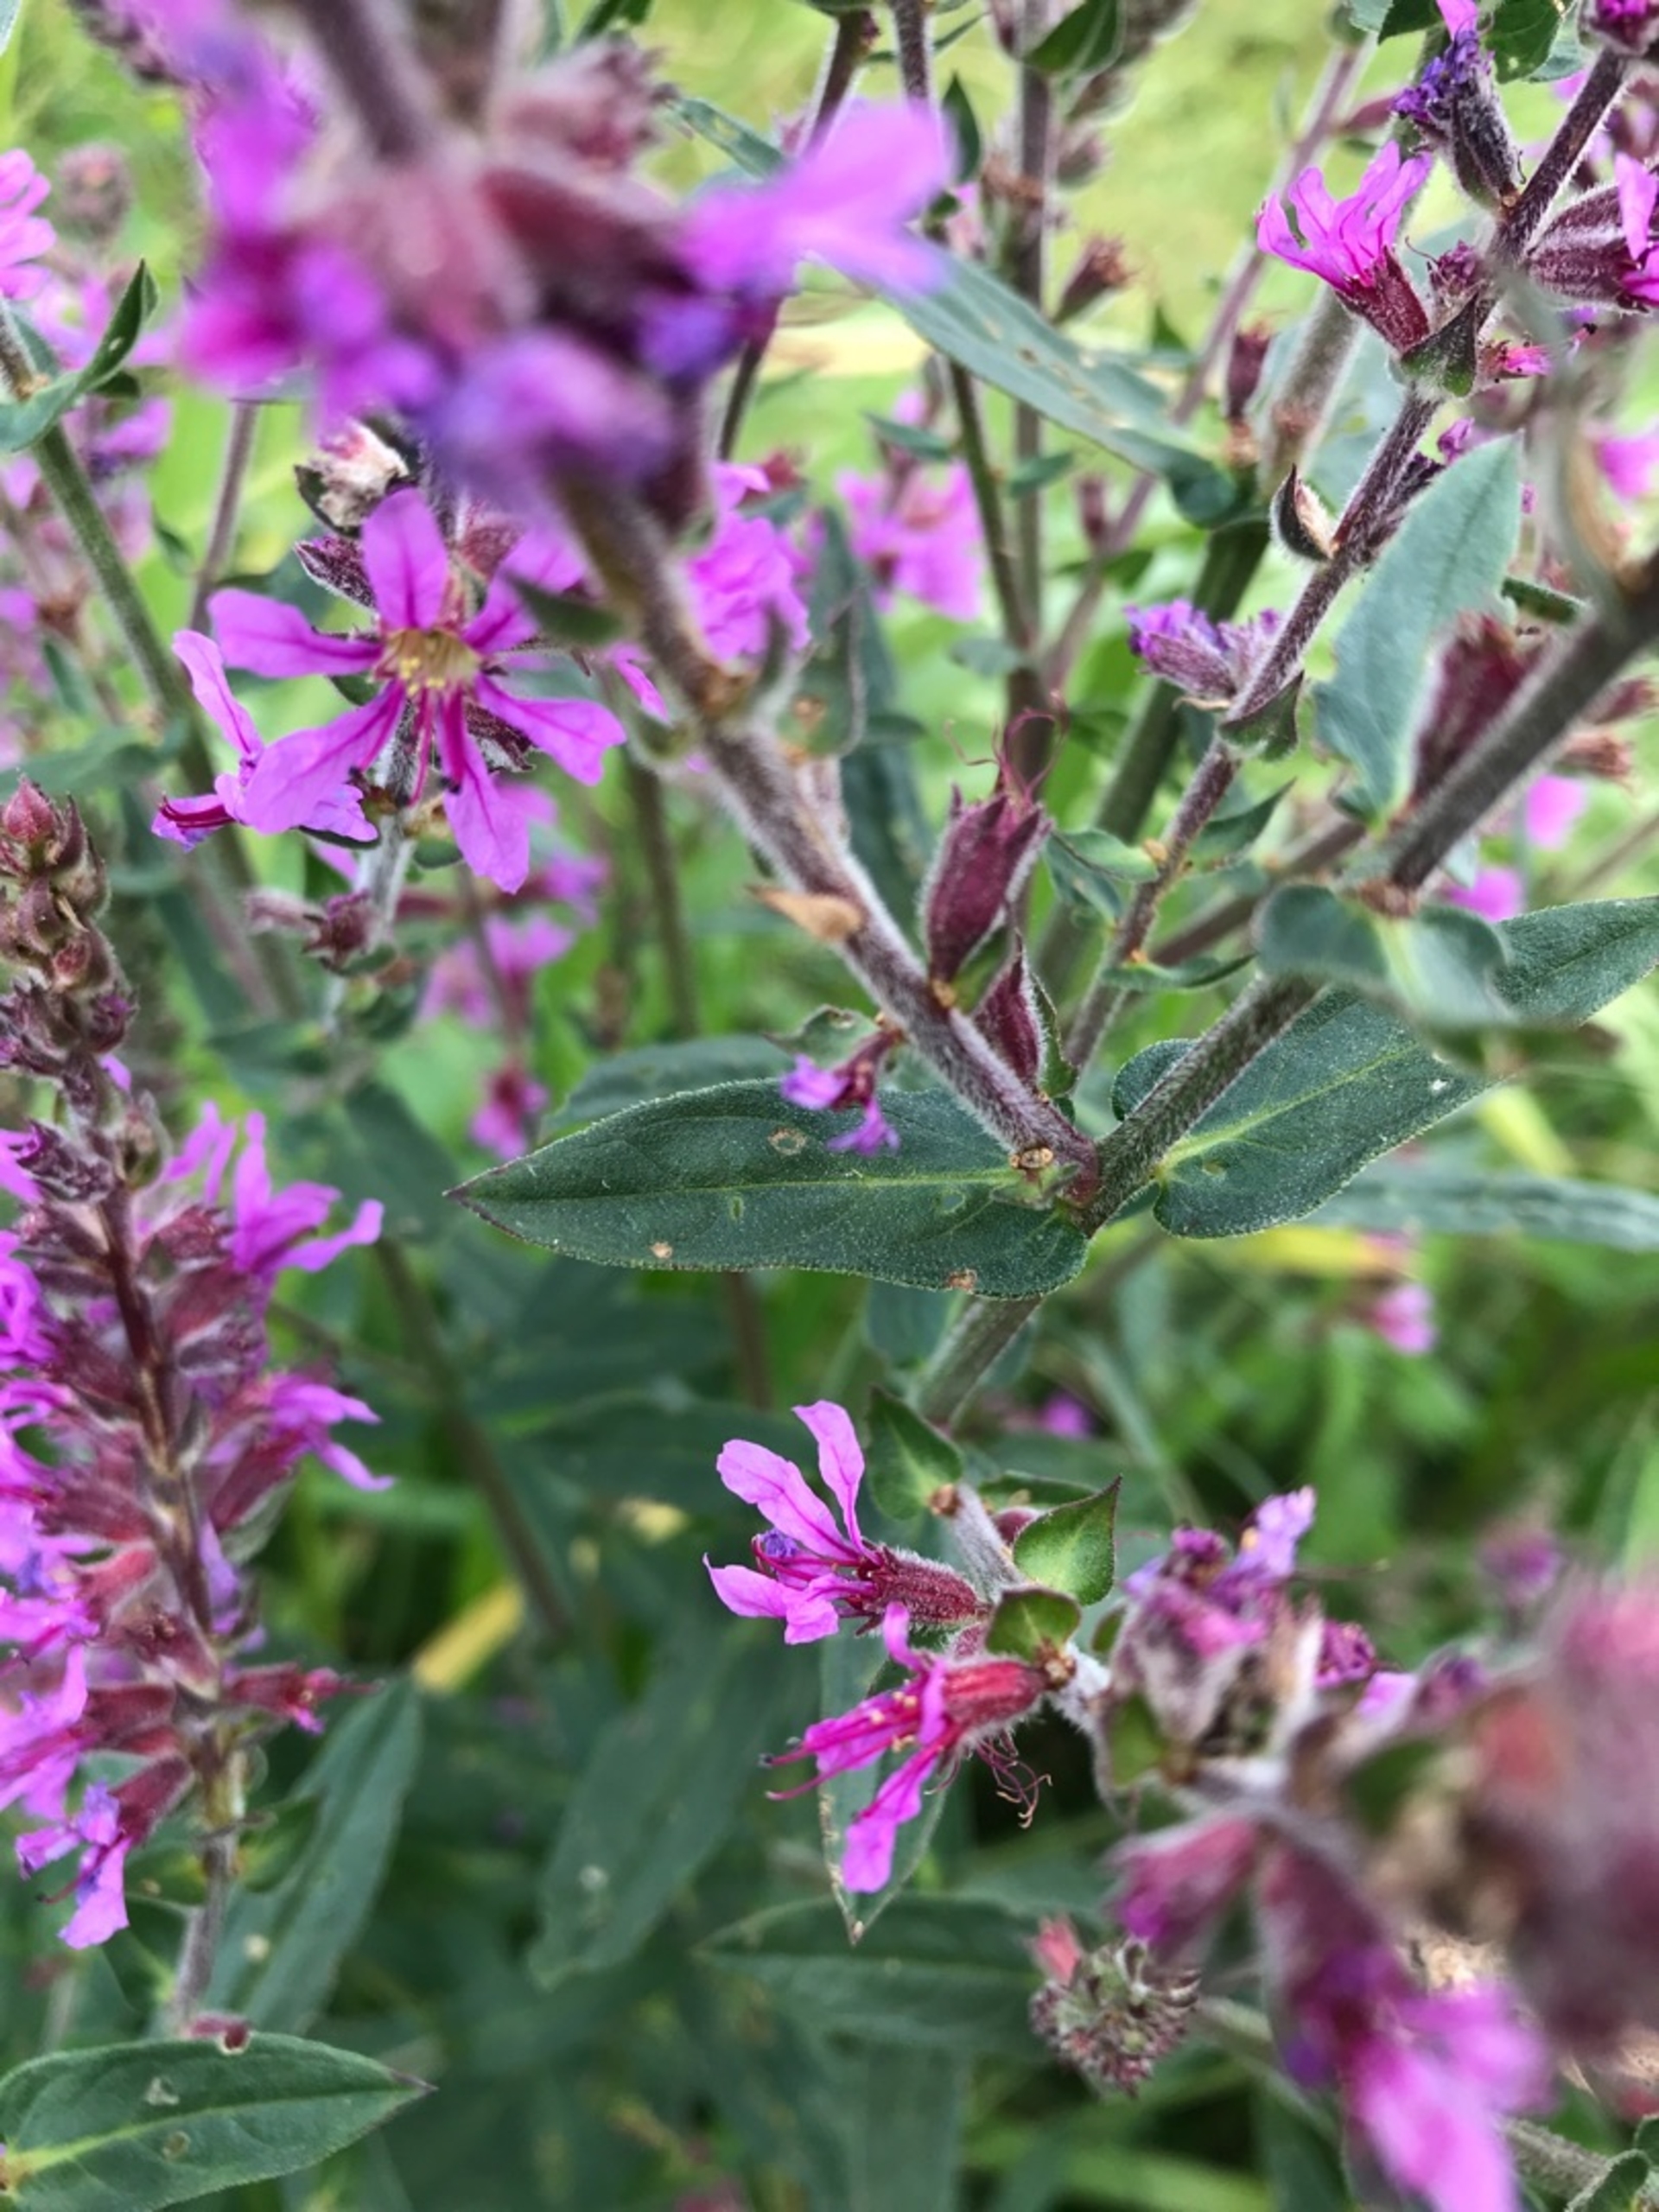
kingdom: Plantae
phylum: Tracheophyta
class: Magnoliopsida
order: Myrtales
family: Lythraceae
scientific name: Lythraceae
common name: Kattehalefamilien
